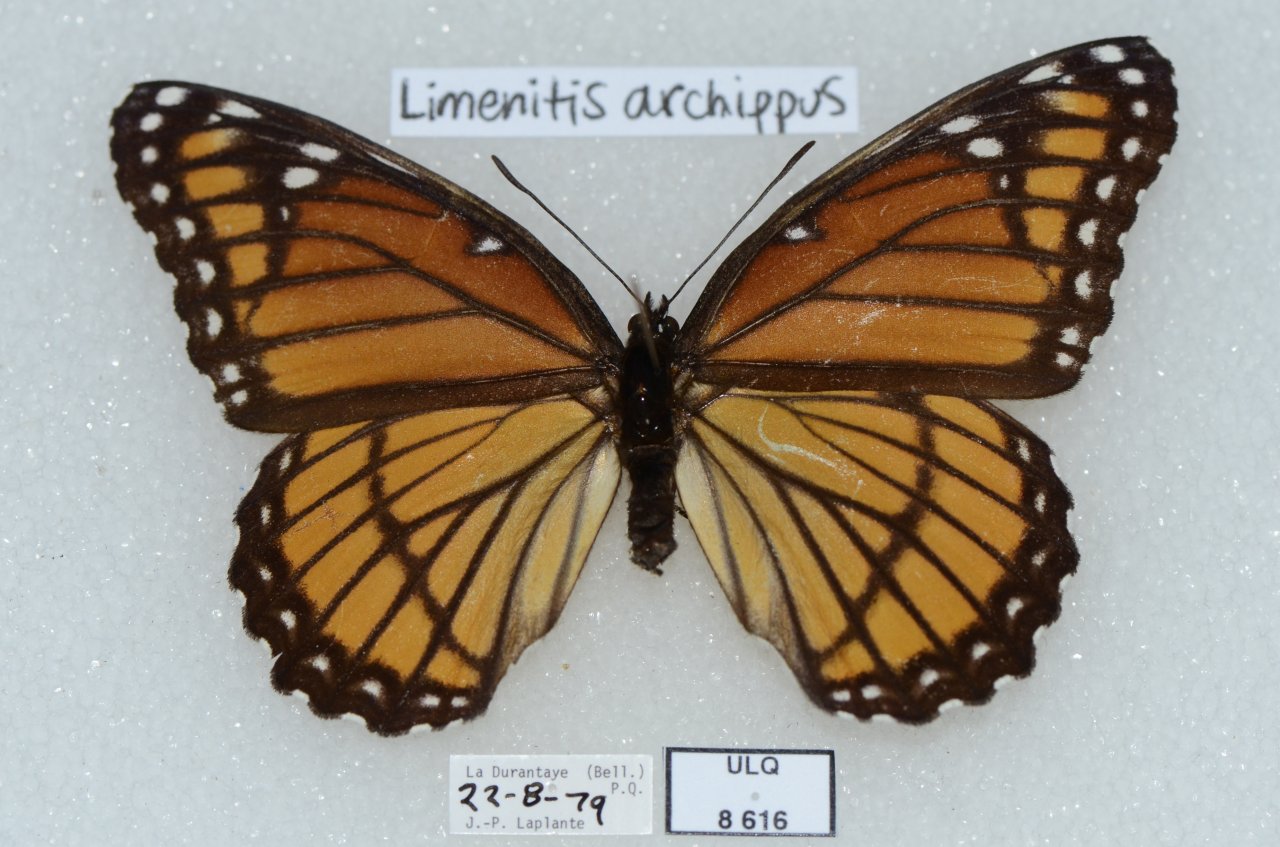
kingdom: Animalia
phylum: Arthropoda
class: Insecta
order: Lepidoptera
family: Nymphalidae
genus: Limenitis
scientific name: Limenitis archippus
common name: Viceroy
